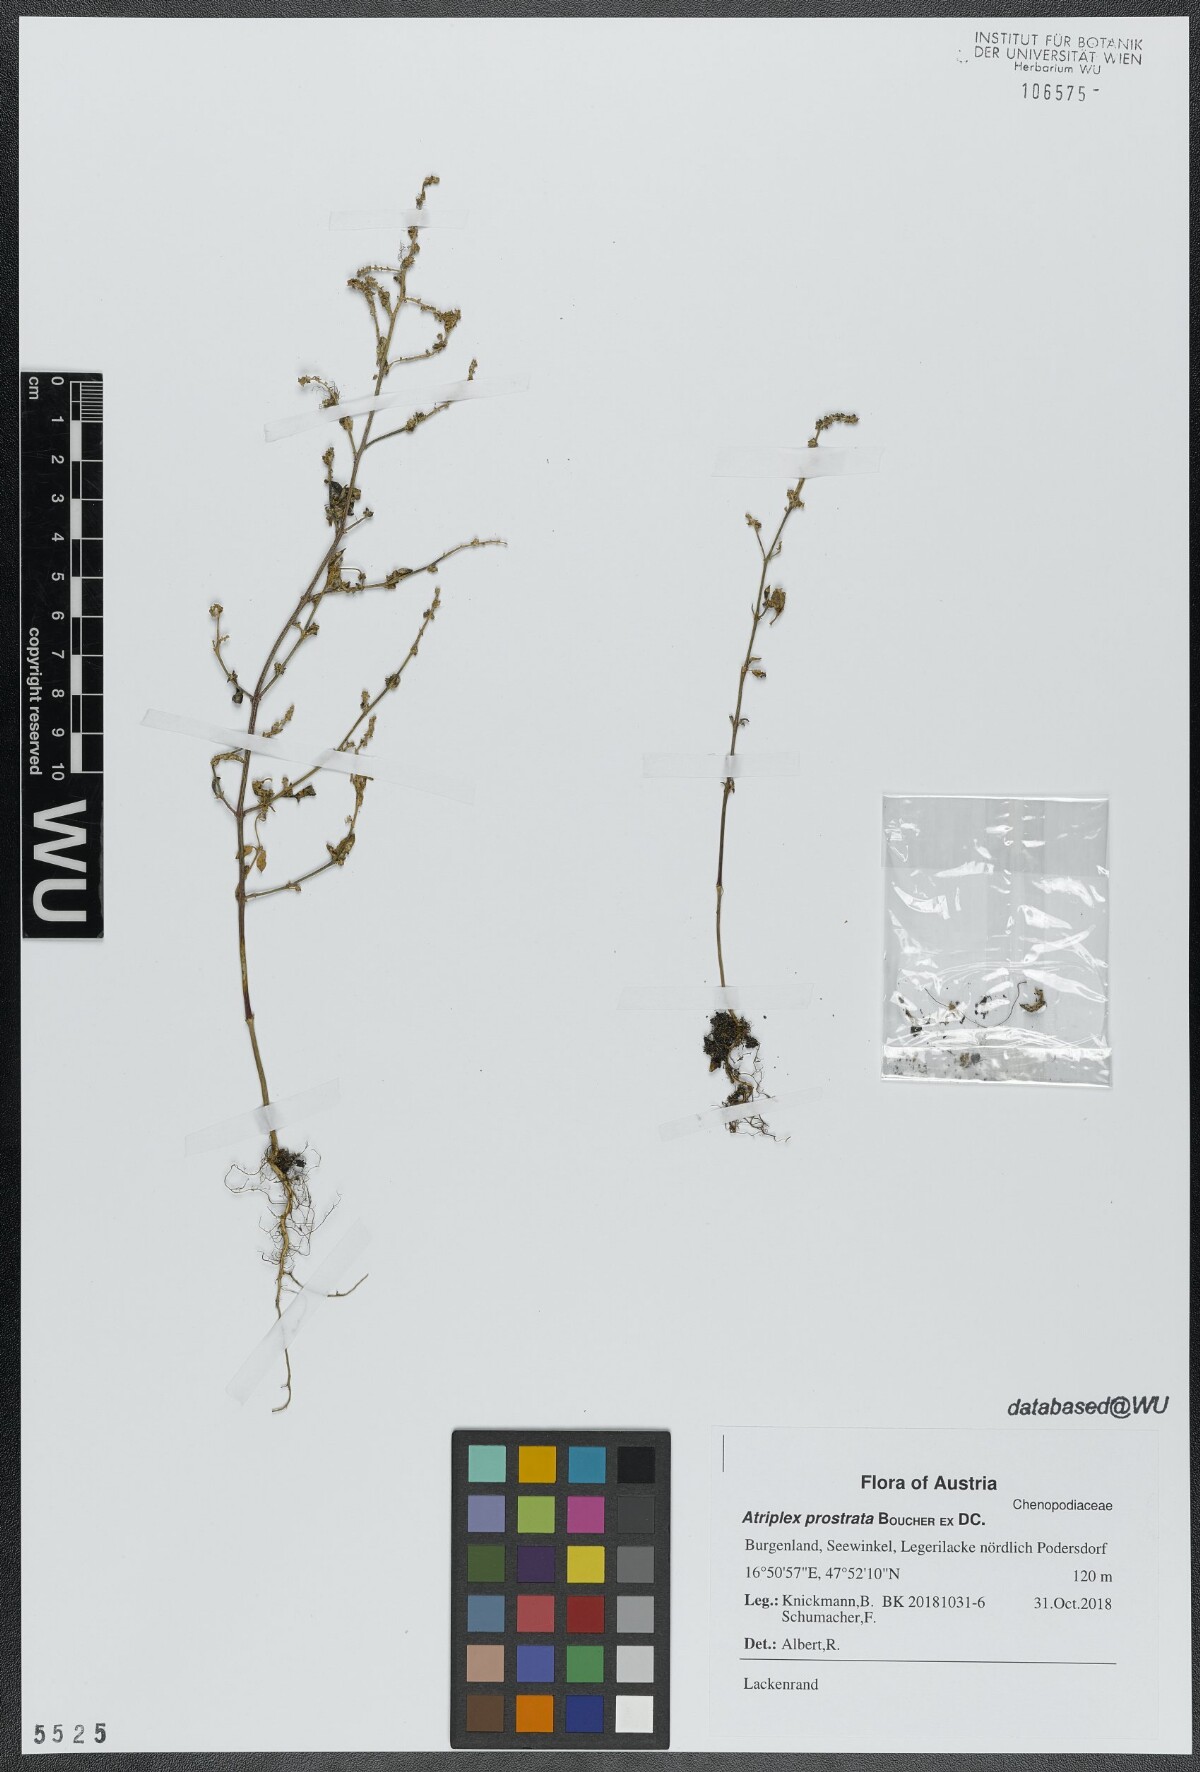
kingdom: Plantae
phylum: Tracheophyta
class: Magnoliopsida
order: Caryophyllales
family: Amaranthaceae
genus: Atriplex
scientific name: Atriplex prostrata
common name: Spear-leaved orache
